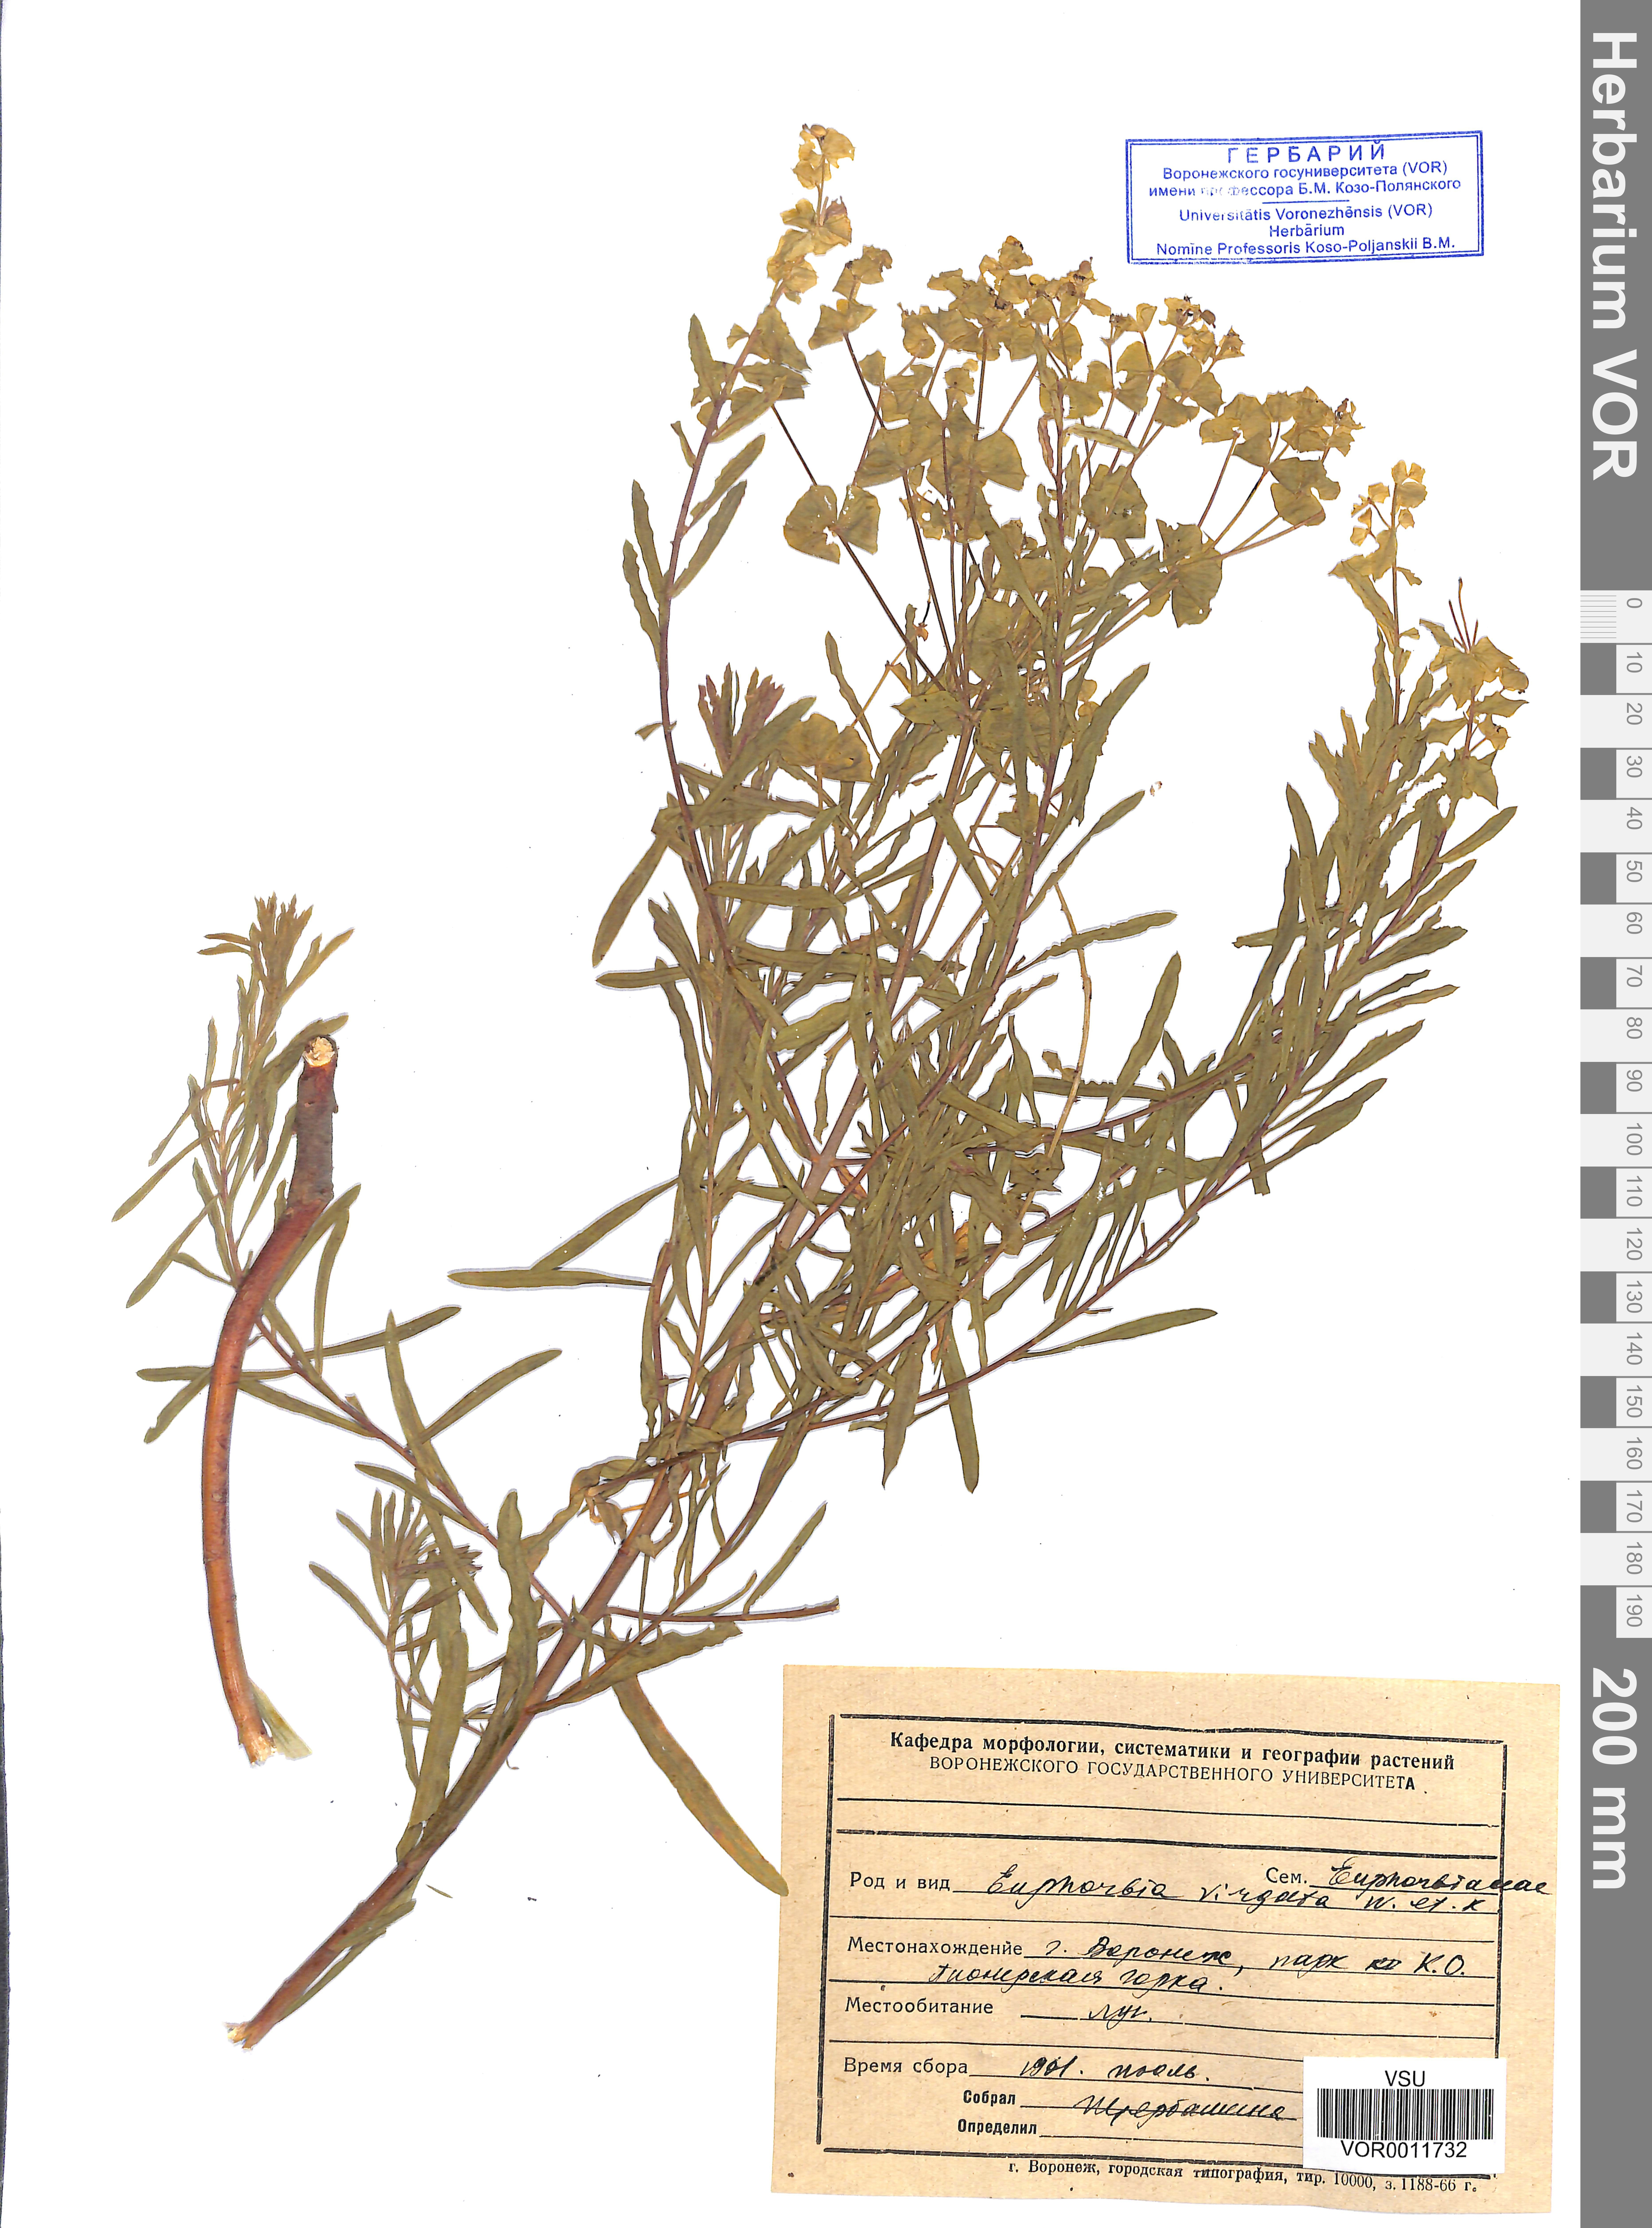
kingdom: Plantae
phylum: Tracheophyta
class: Magnoliopsida
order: Malpighiales
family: Euphorbiaceae
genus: Euphorbia
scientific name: Euphorbia virgata
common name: Leafy spurge
